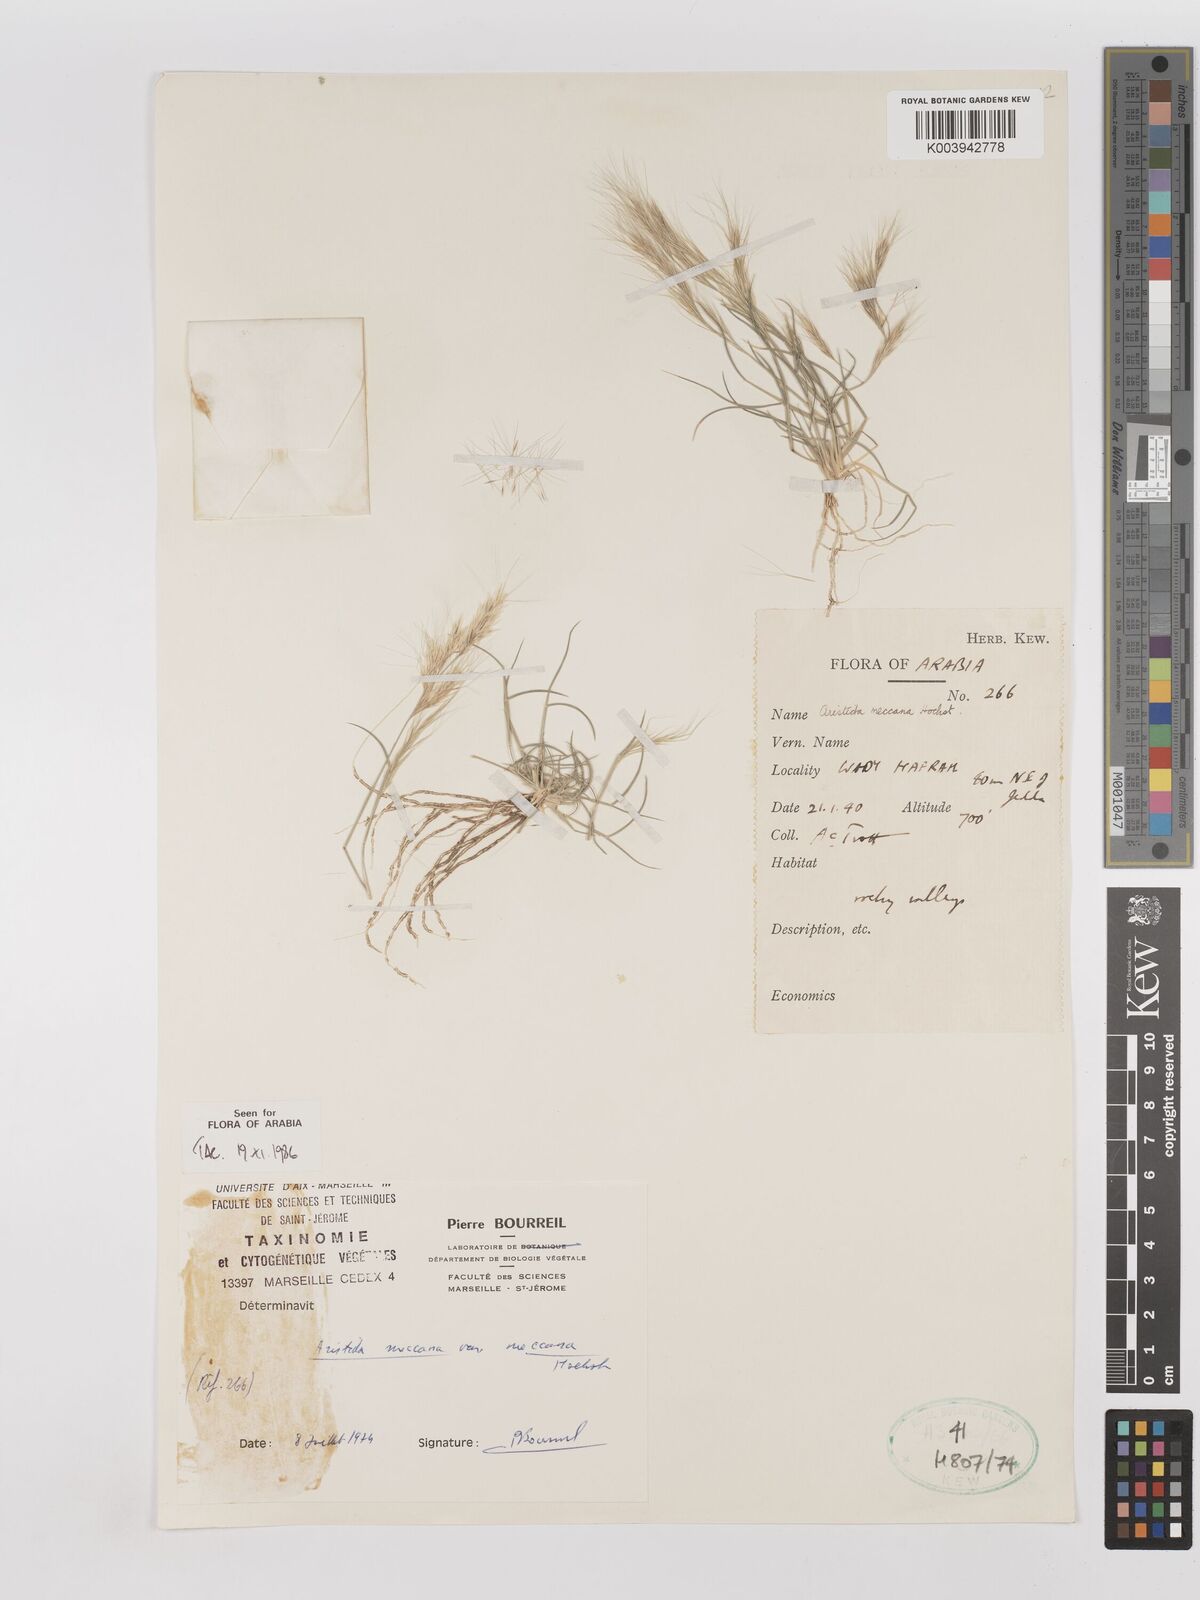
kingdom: Plantae
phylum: Tracheophyta
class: Liliopsida
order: Poales
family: Poaceae
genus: Aristida
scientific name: Aristida mutabilis
